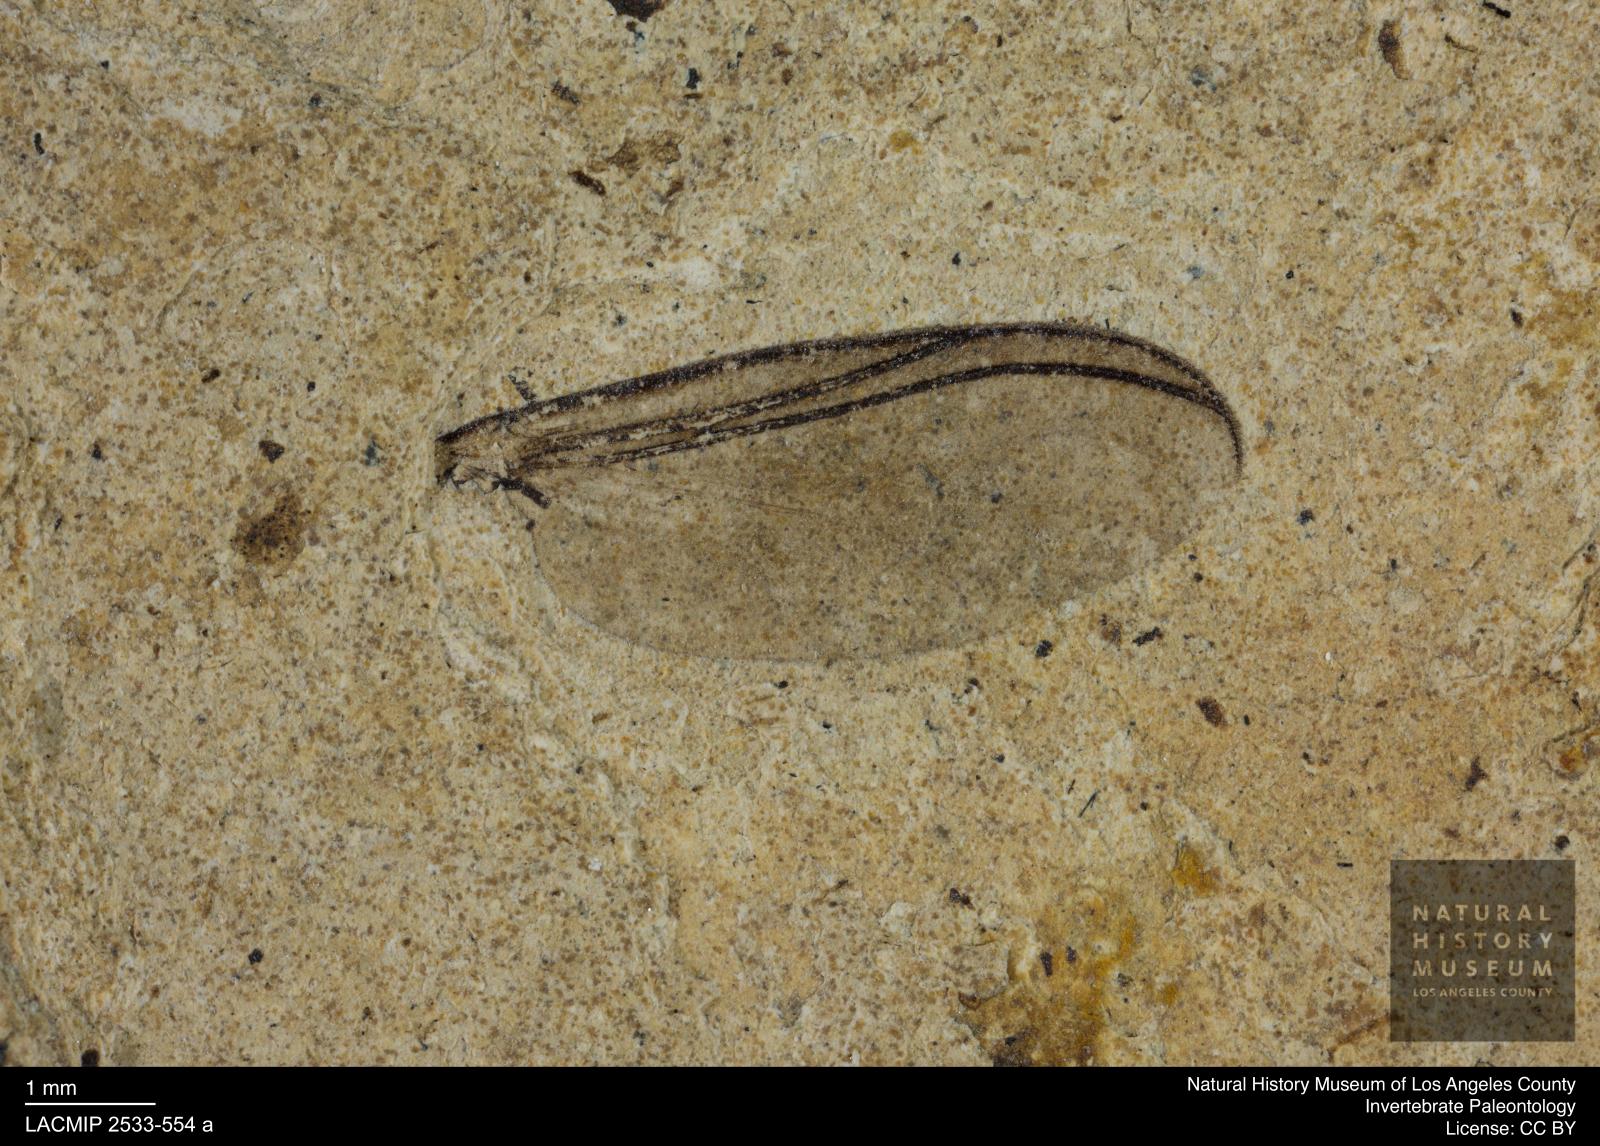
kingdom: Animalia
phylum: Arthropoda
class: Insecta
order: Diptera
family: Sciaridae
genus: Sciara
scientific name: Sciara aulica
